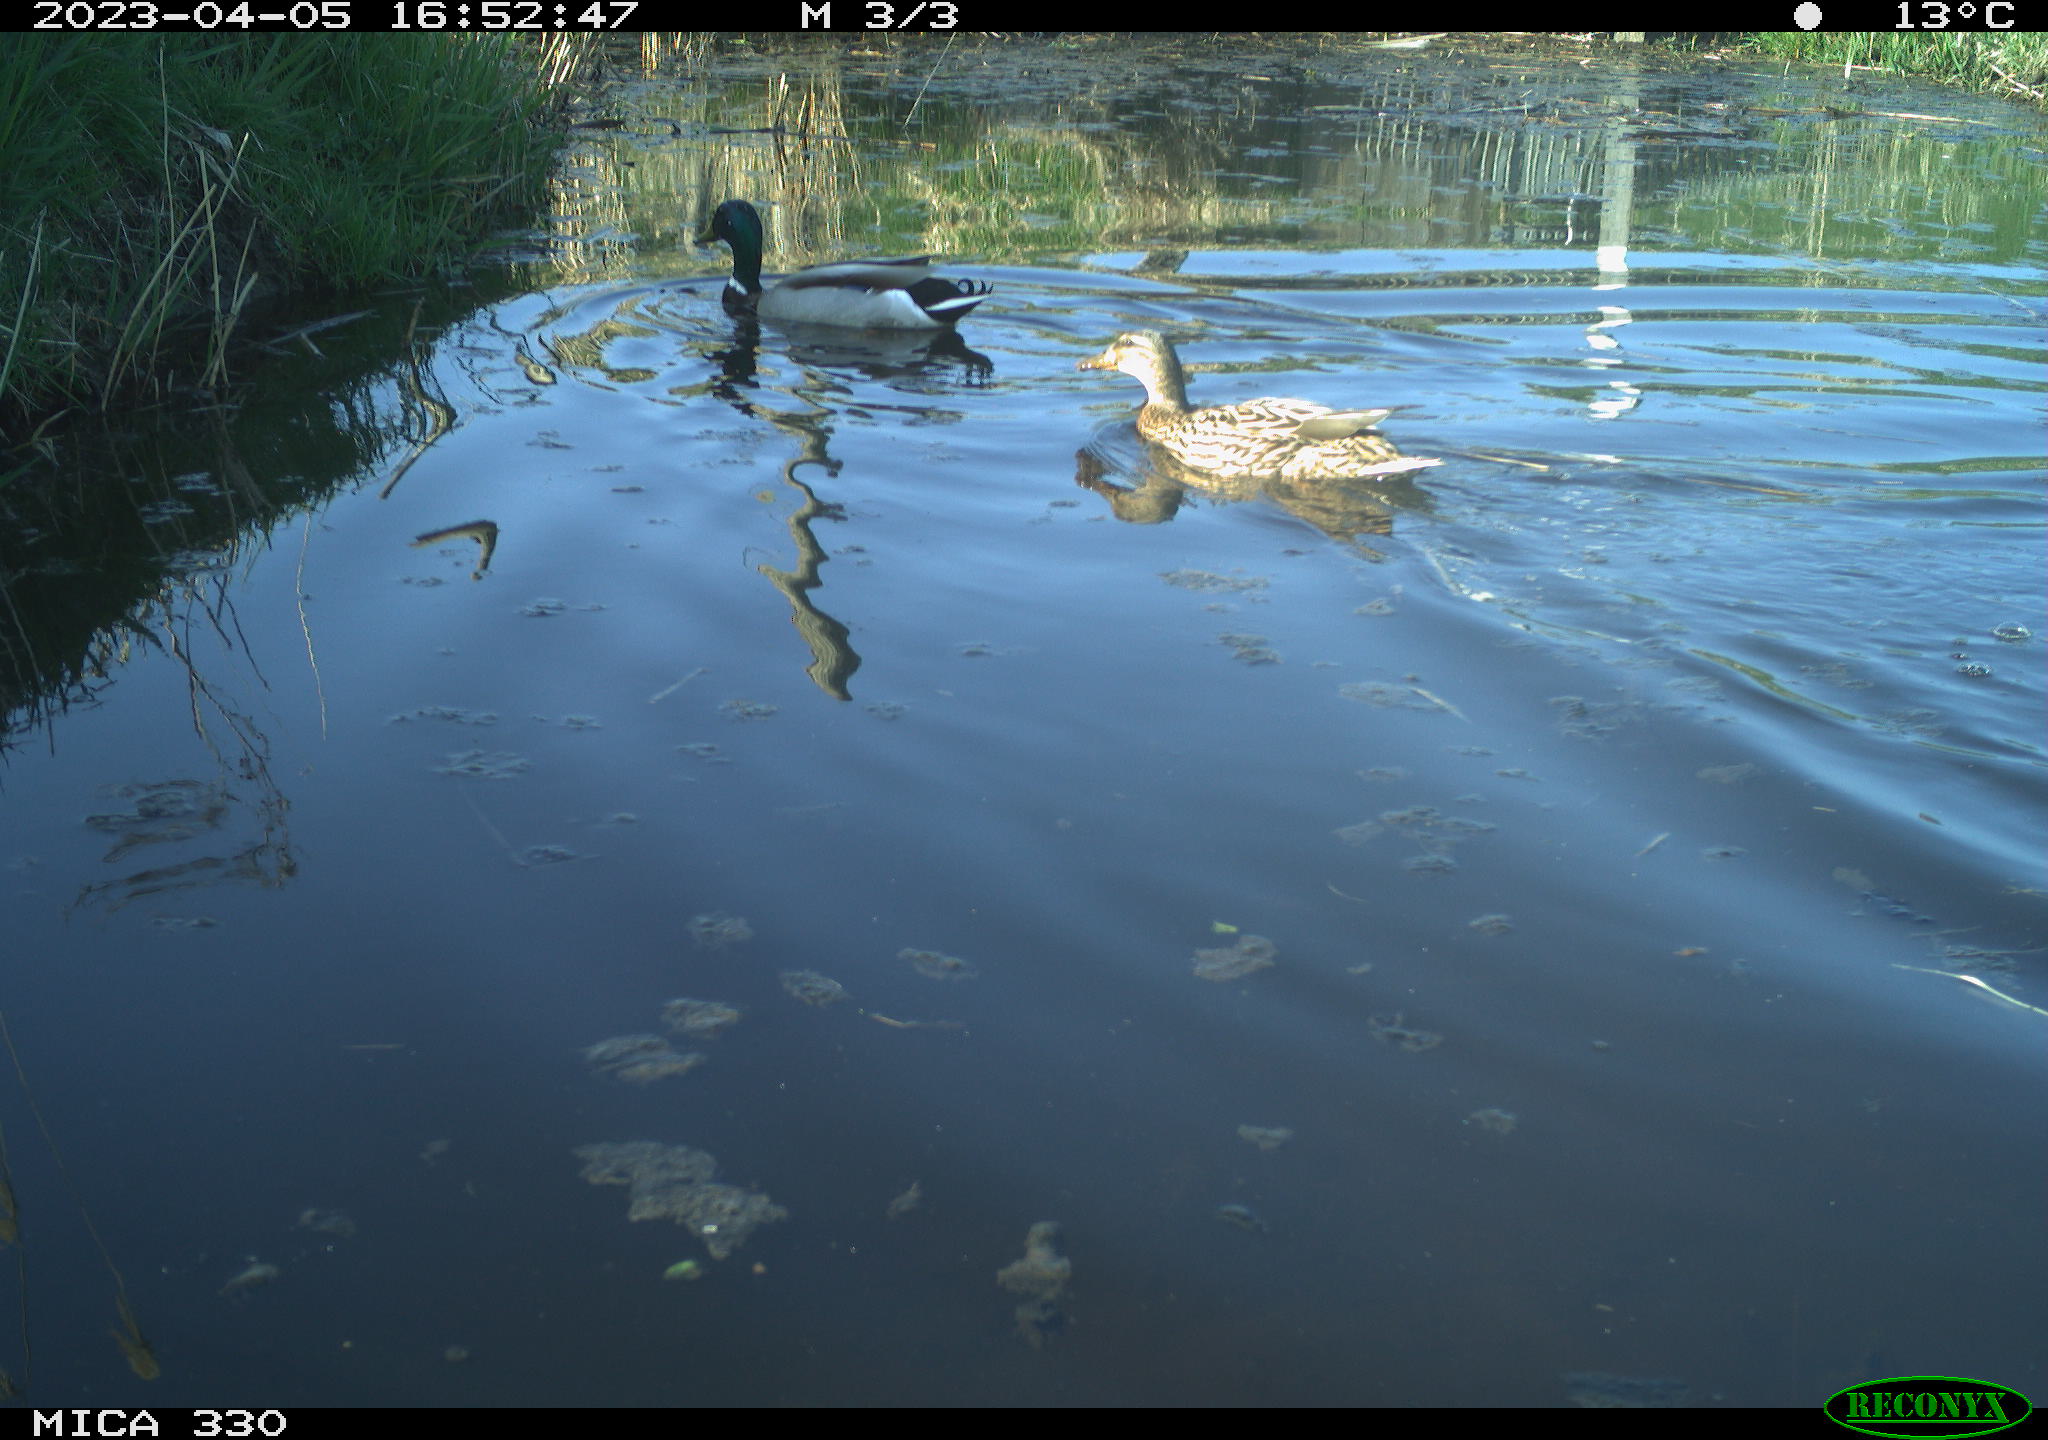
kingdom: Animalia
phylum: Chordata
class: Aves
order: Anseriformes
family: Anatidae
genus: Anas
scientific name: Anas
